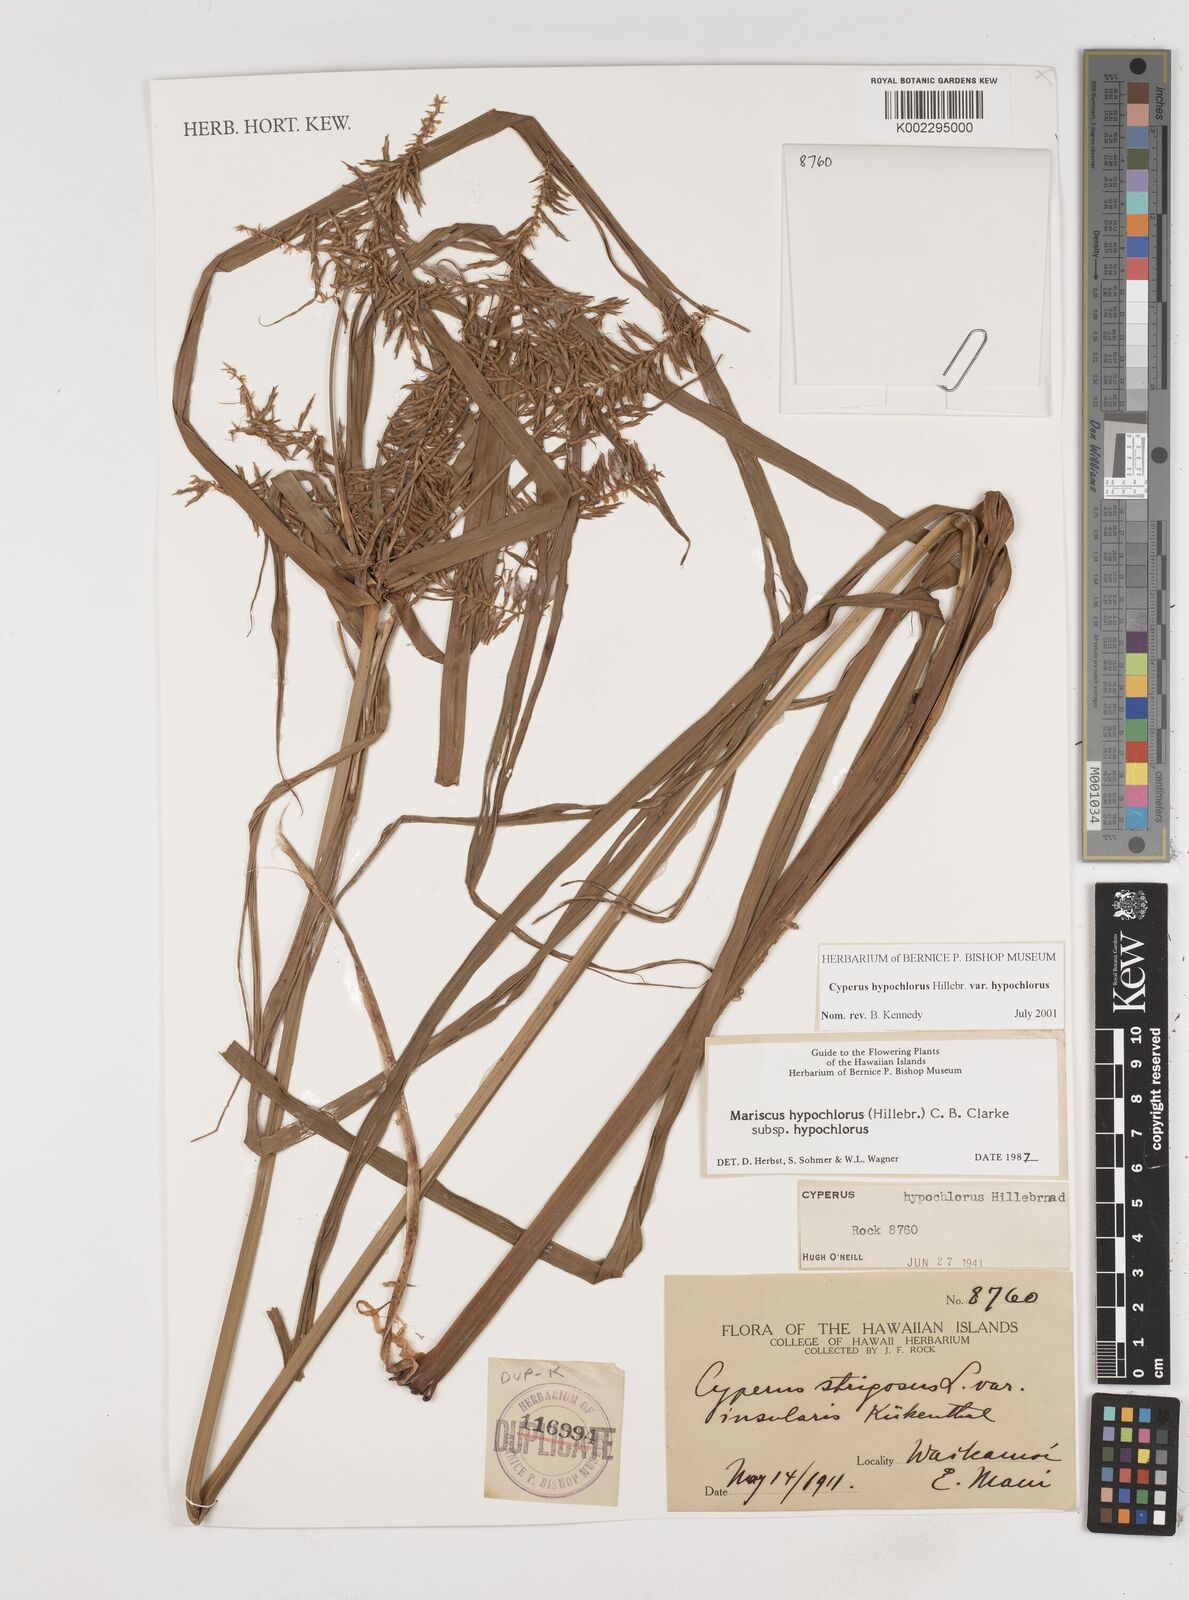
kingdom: Plantae
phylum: Tracheophyta
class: Liliopsida
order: Poales
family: Cyperaceae
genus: Cyperus
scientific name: Cyperus hypochlorus
